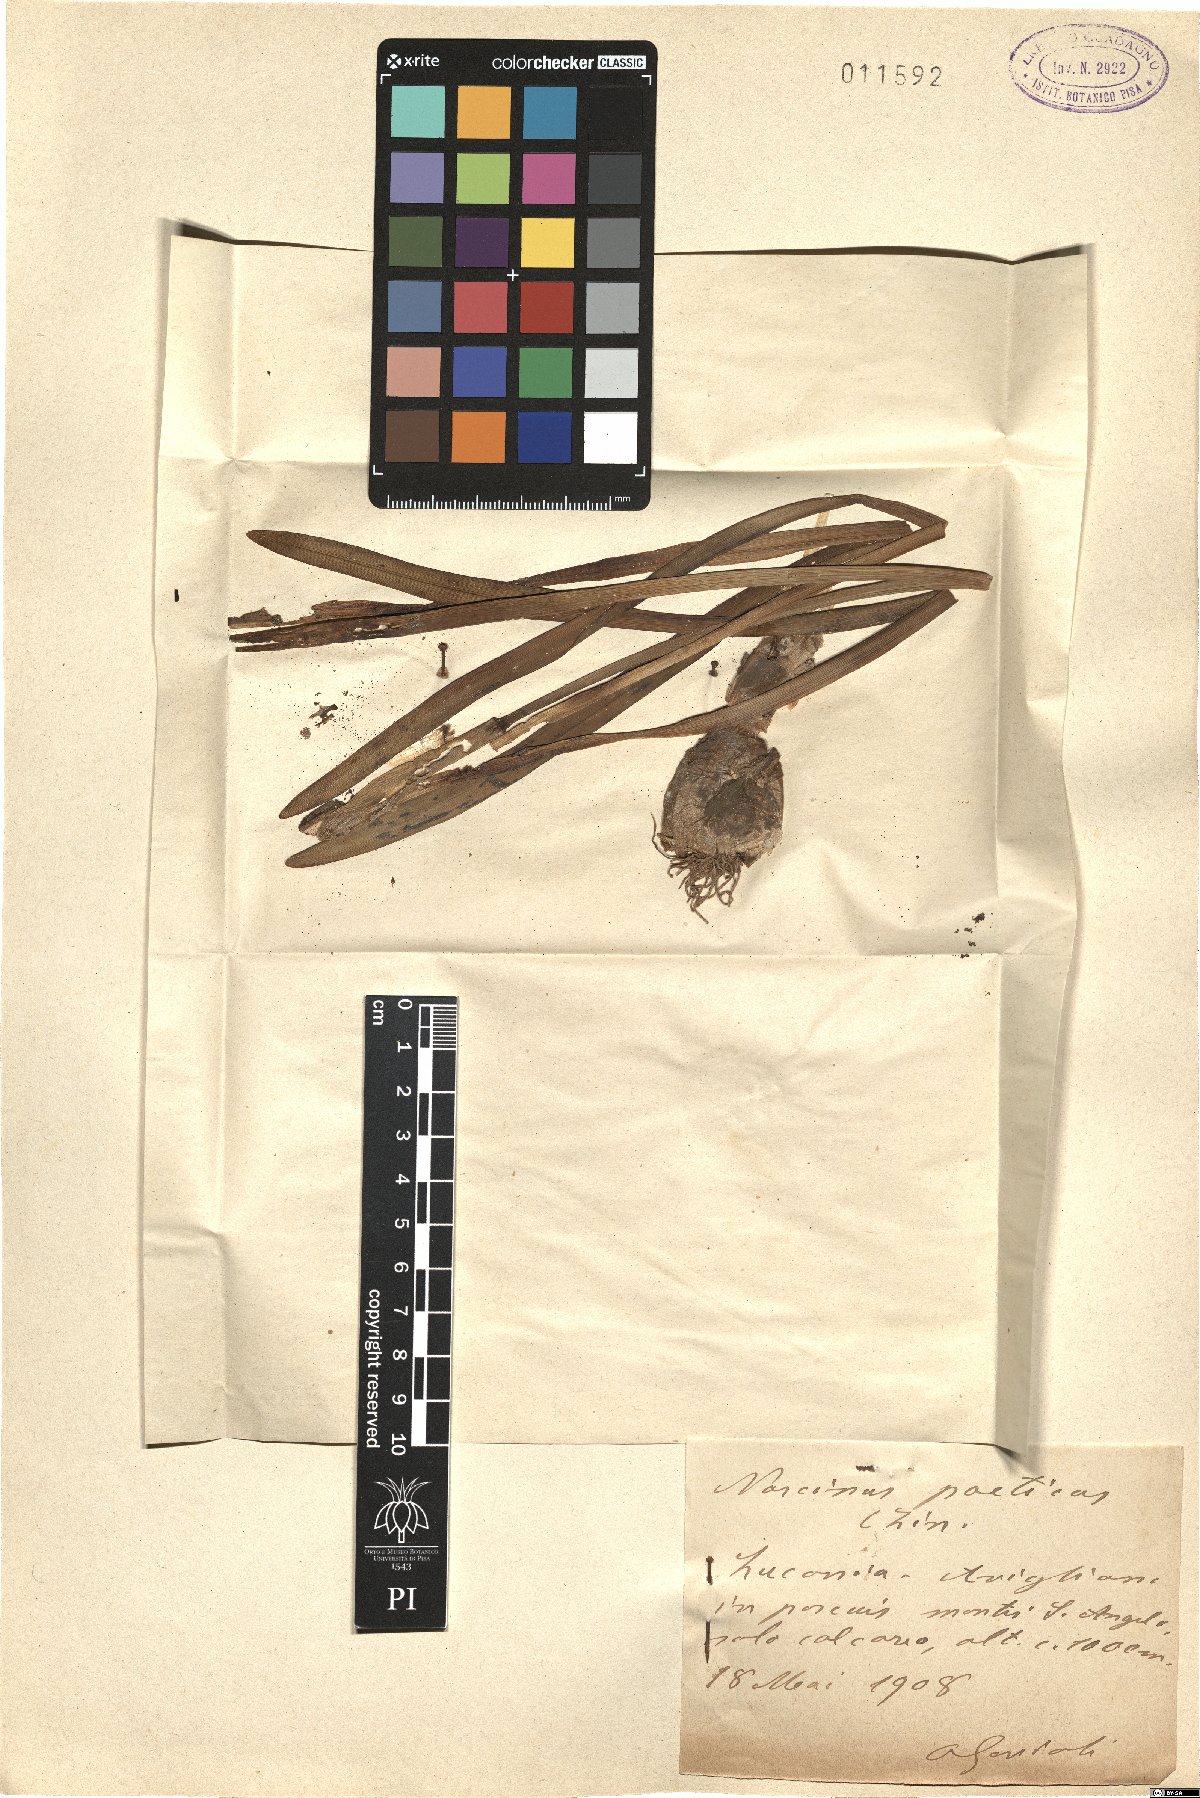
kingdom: Plantae
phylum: Tracheophyta
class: Liliopsida
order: Asparagales
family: Amaryllidaceae
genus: Narcissus
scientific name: Narcissus poeticus
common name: Pheasant's-eye daffodil
